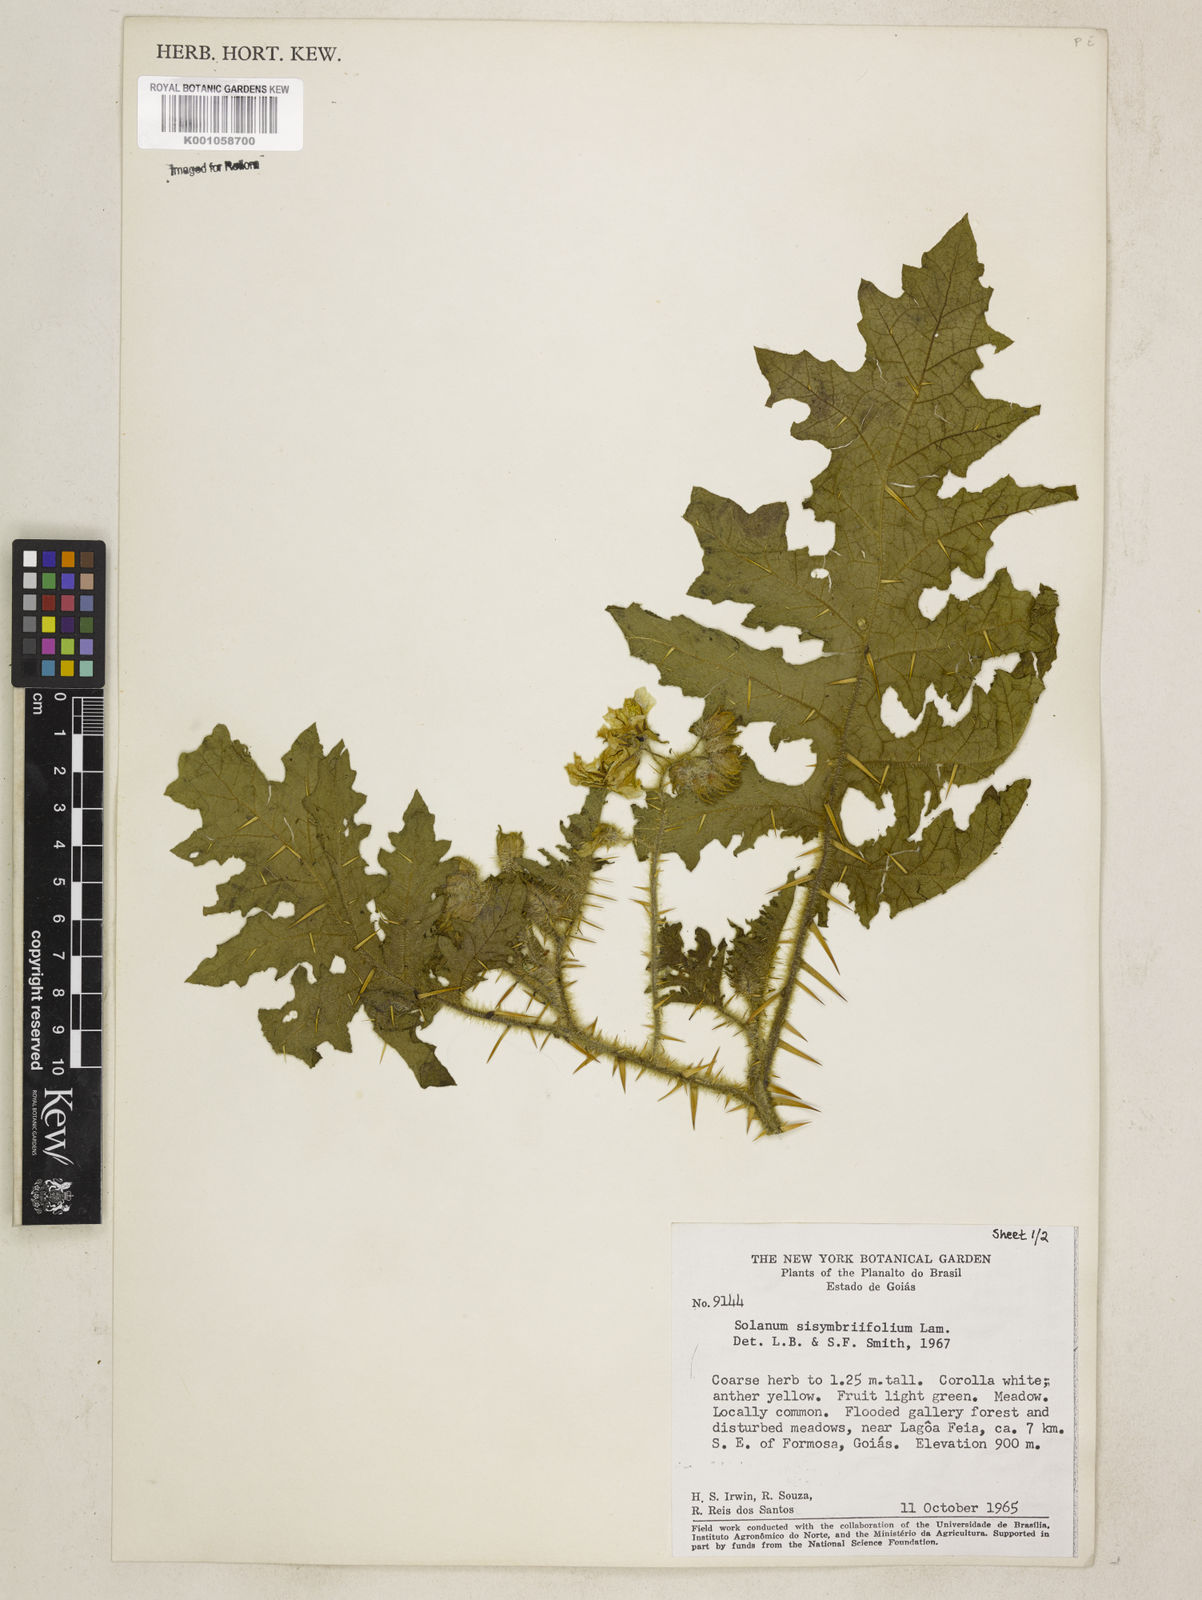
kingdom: Plantae
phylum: Tracheophyta
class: Magnoliopsida
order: Solanales
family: Solanaceae
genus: Solanum
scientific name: Solanum sisymbriifolium
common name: Red buffalo-bur
